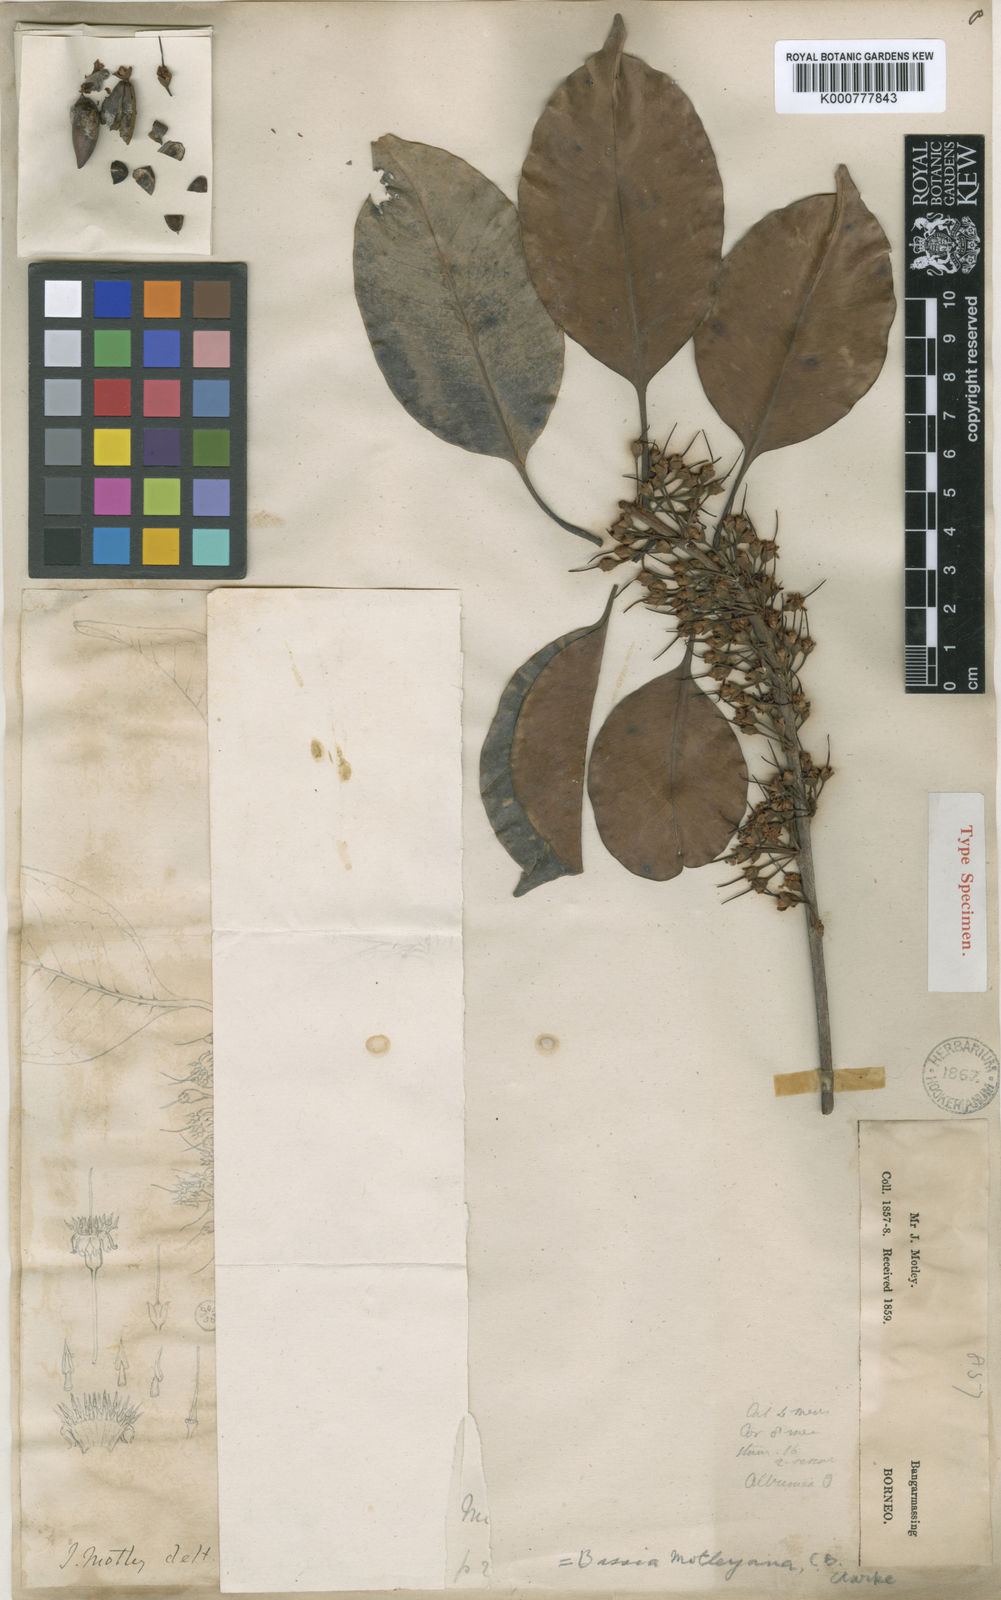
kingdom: Plantae
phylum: Tracheophyta
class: Magnoliopsida
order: Ericales
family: Sapotaceae
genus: Madhuca
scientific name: Madhuca motleyana
